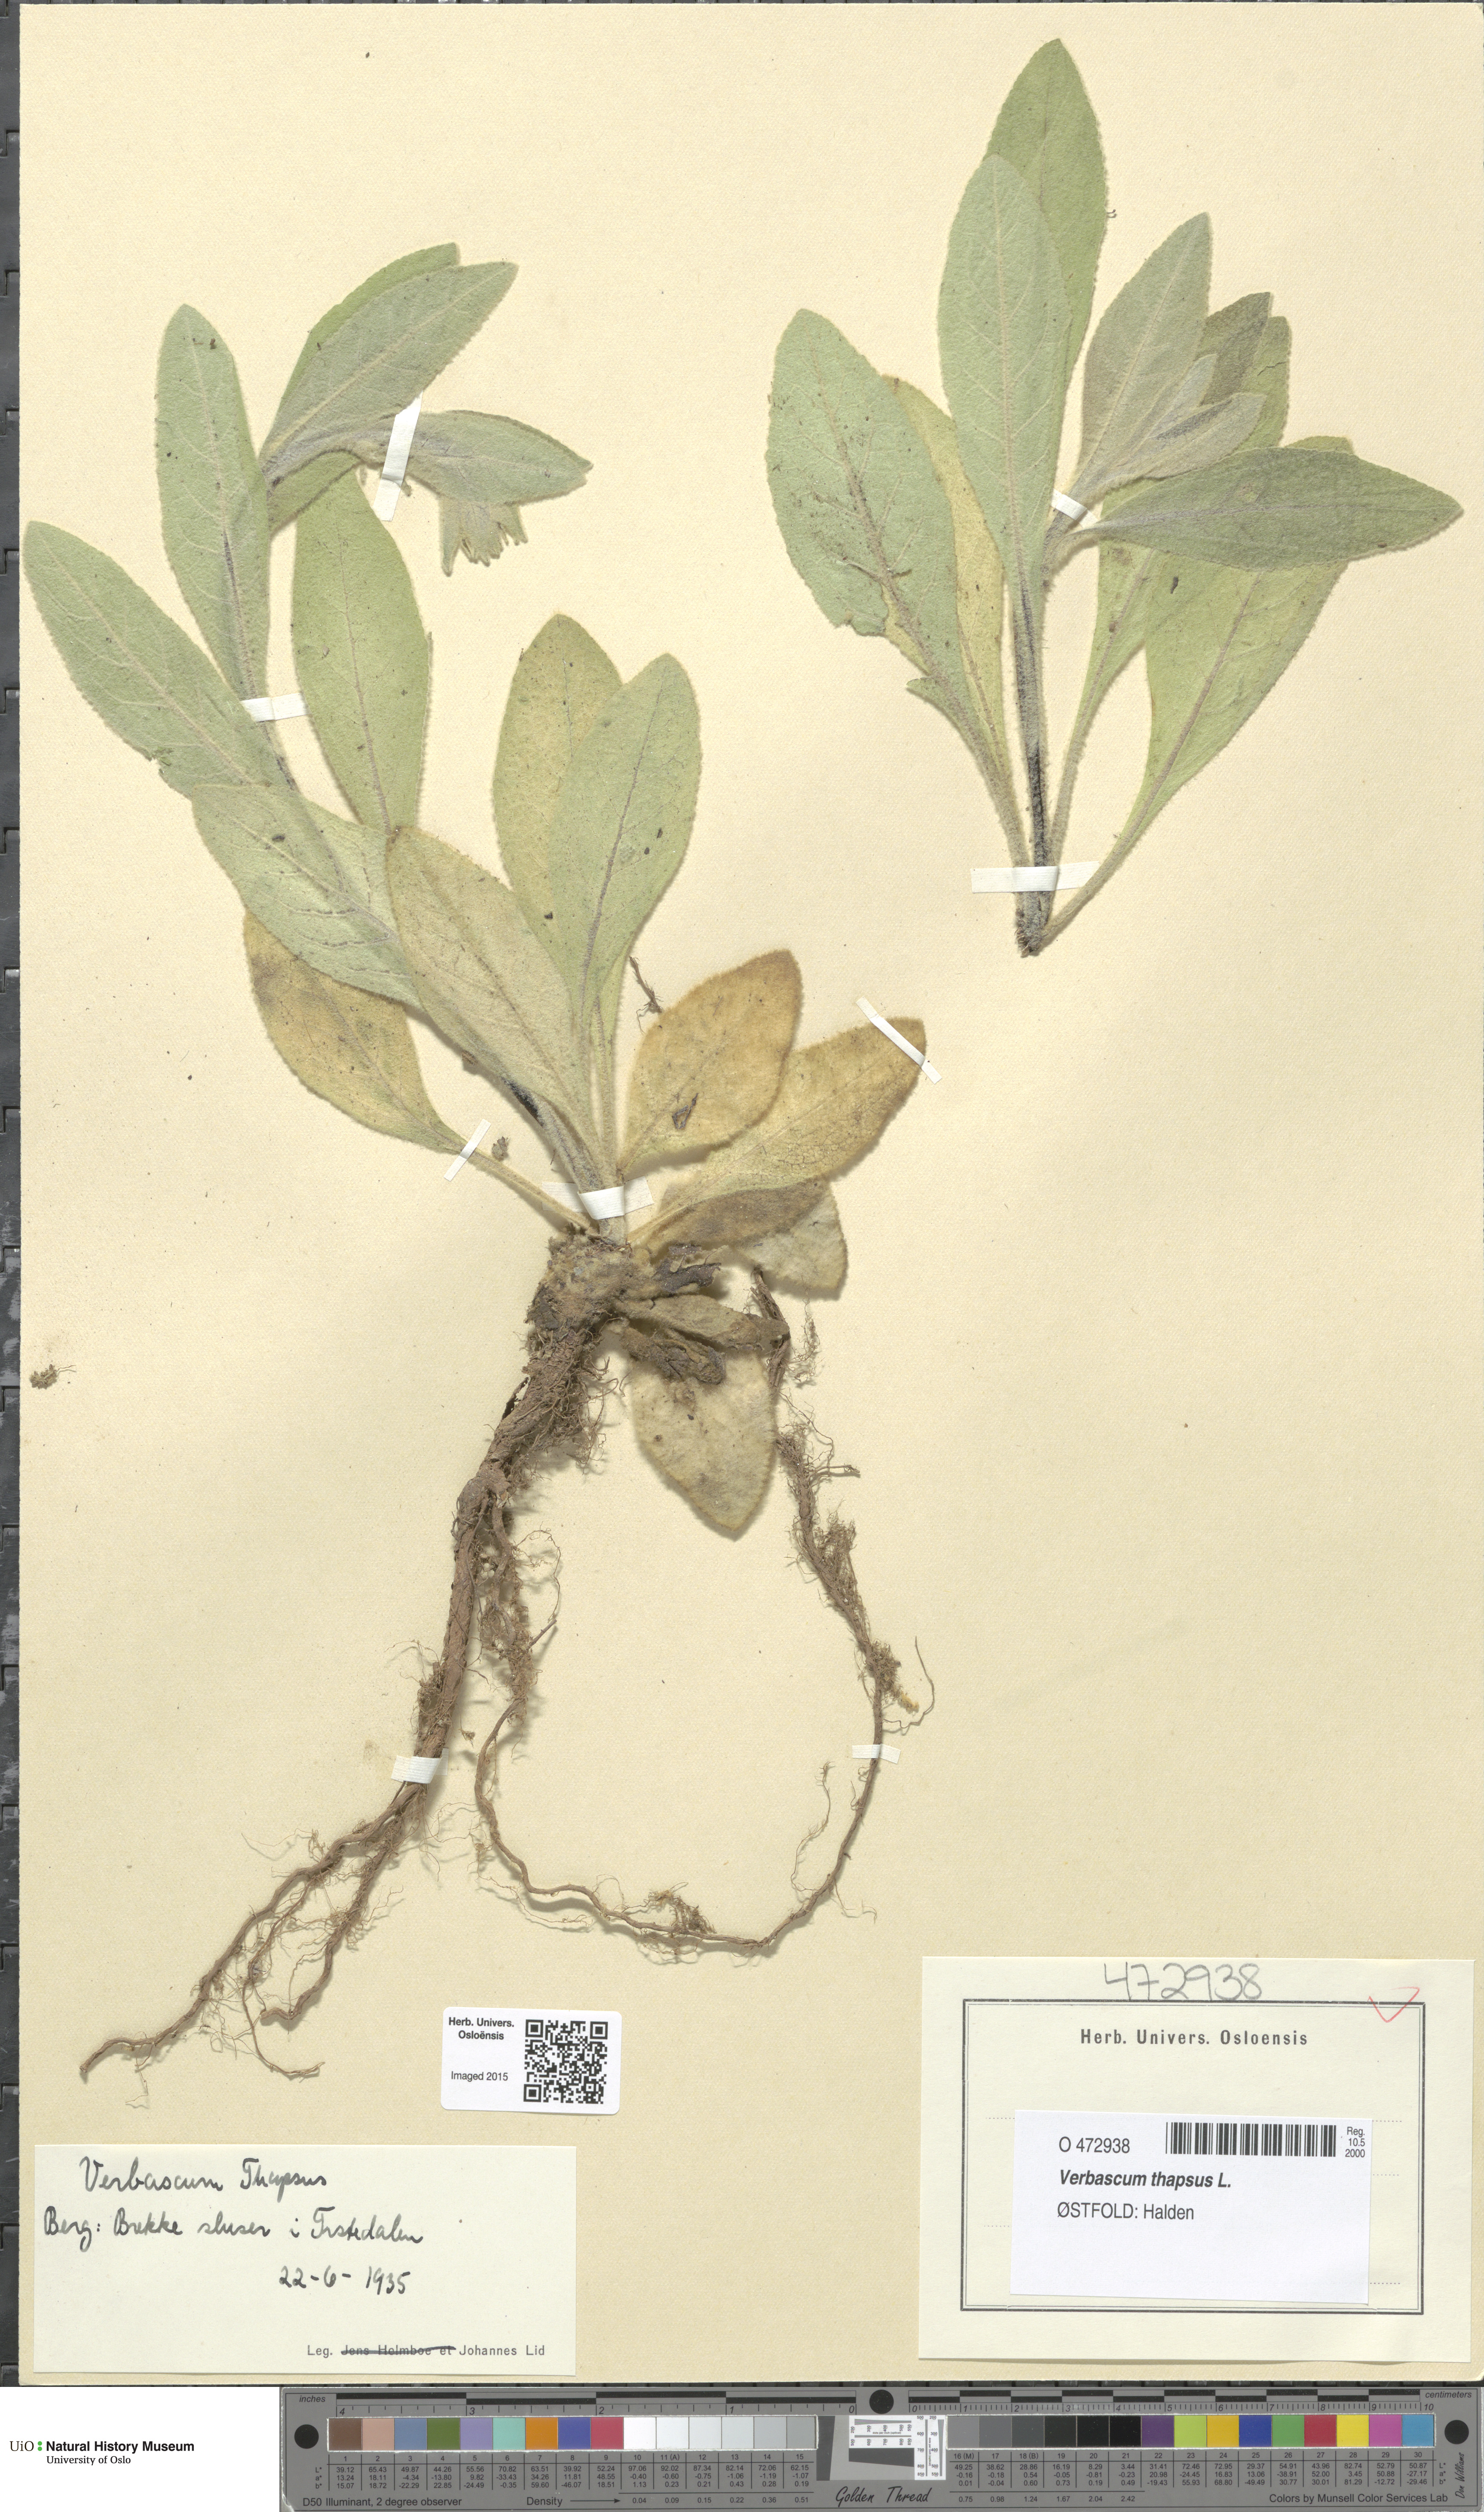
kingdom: Plantae
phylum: Tracheophyta
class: Magnoliopsida
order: Lamiales
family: Scrophulariaceae
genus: Verbascum
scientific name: Verbascum thapsus
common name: Common mullein
